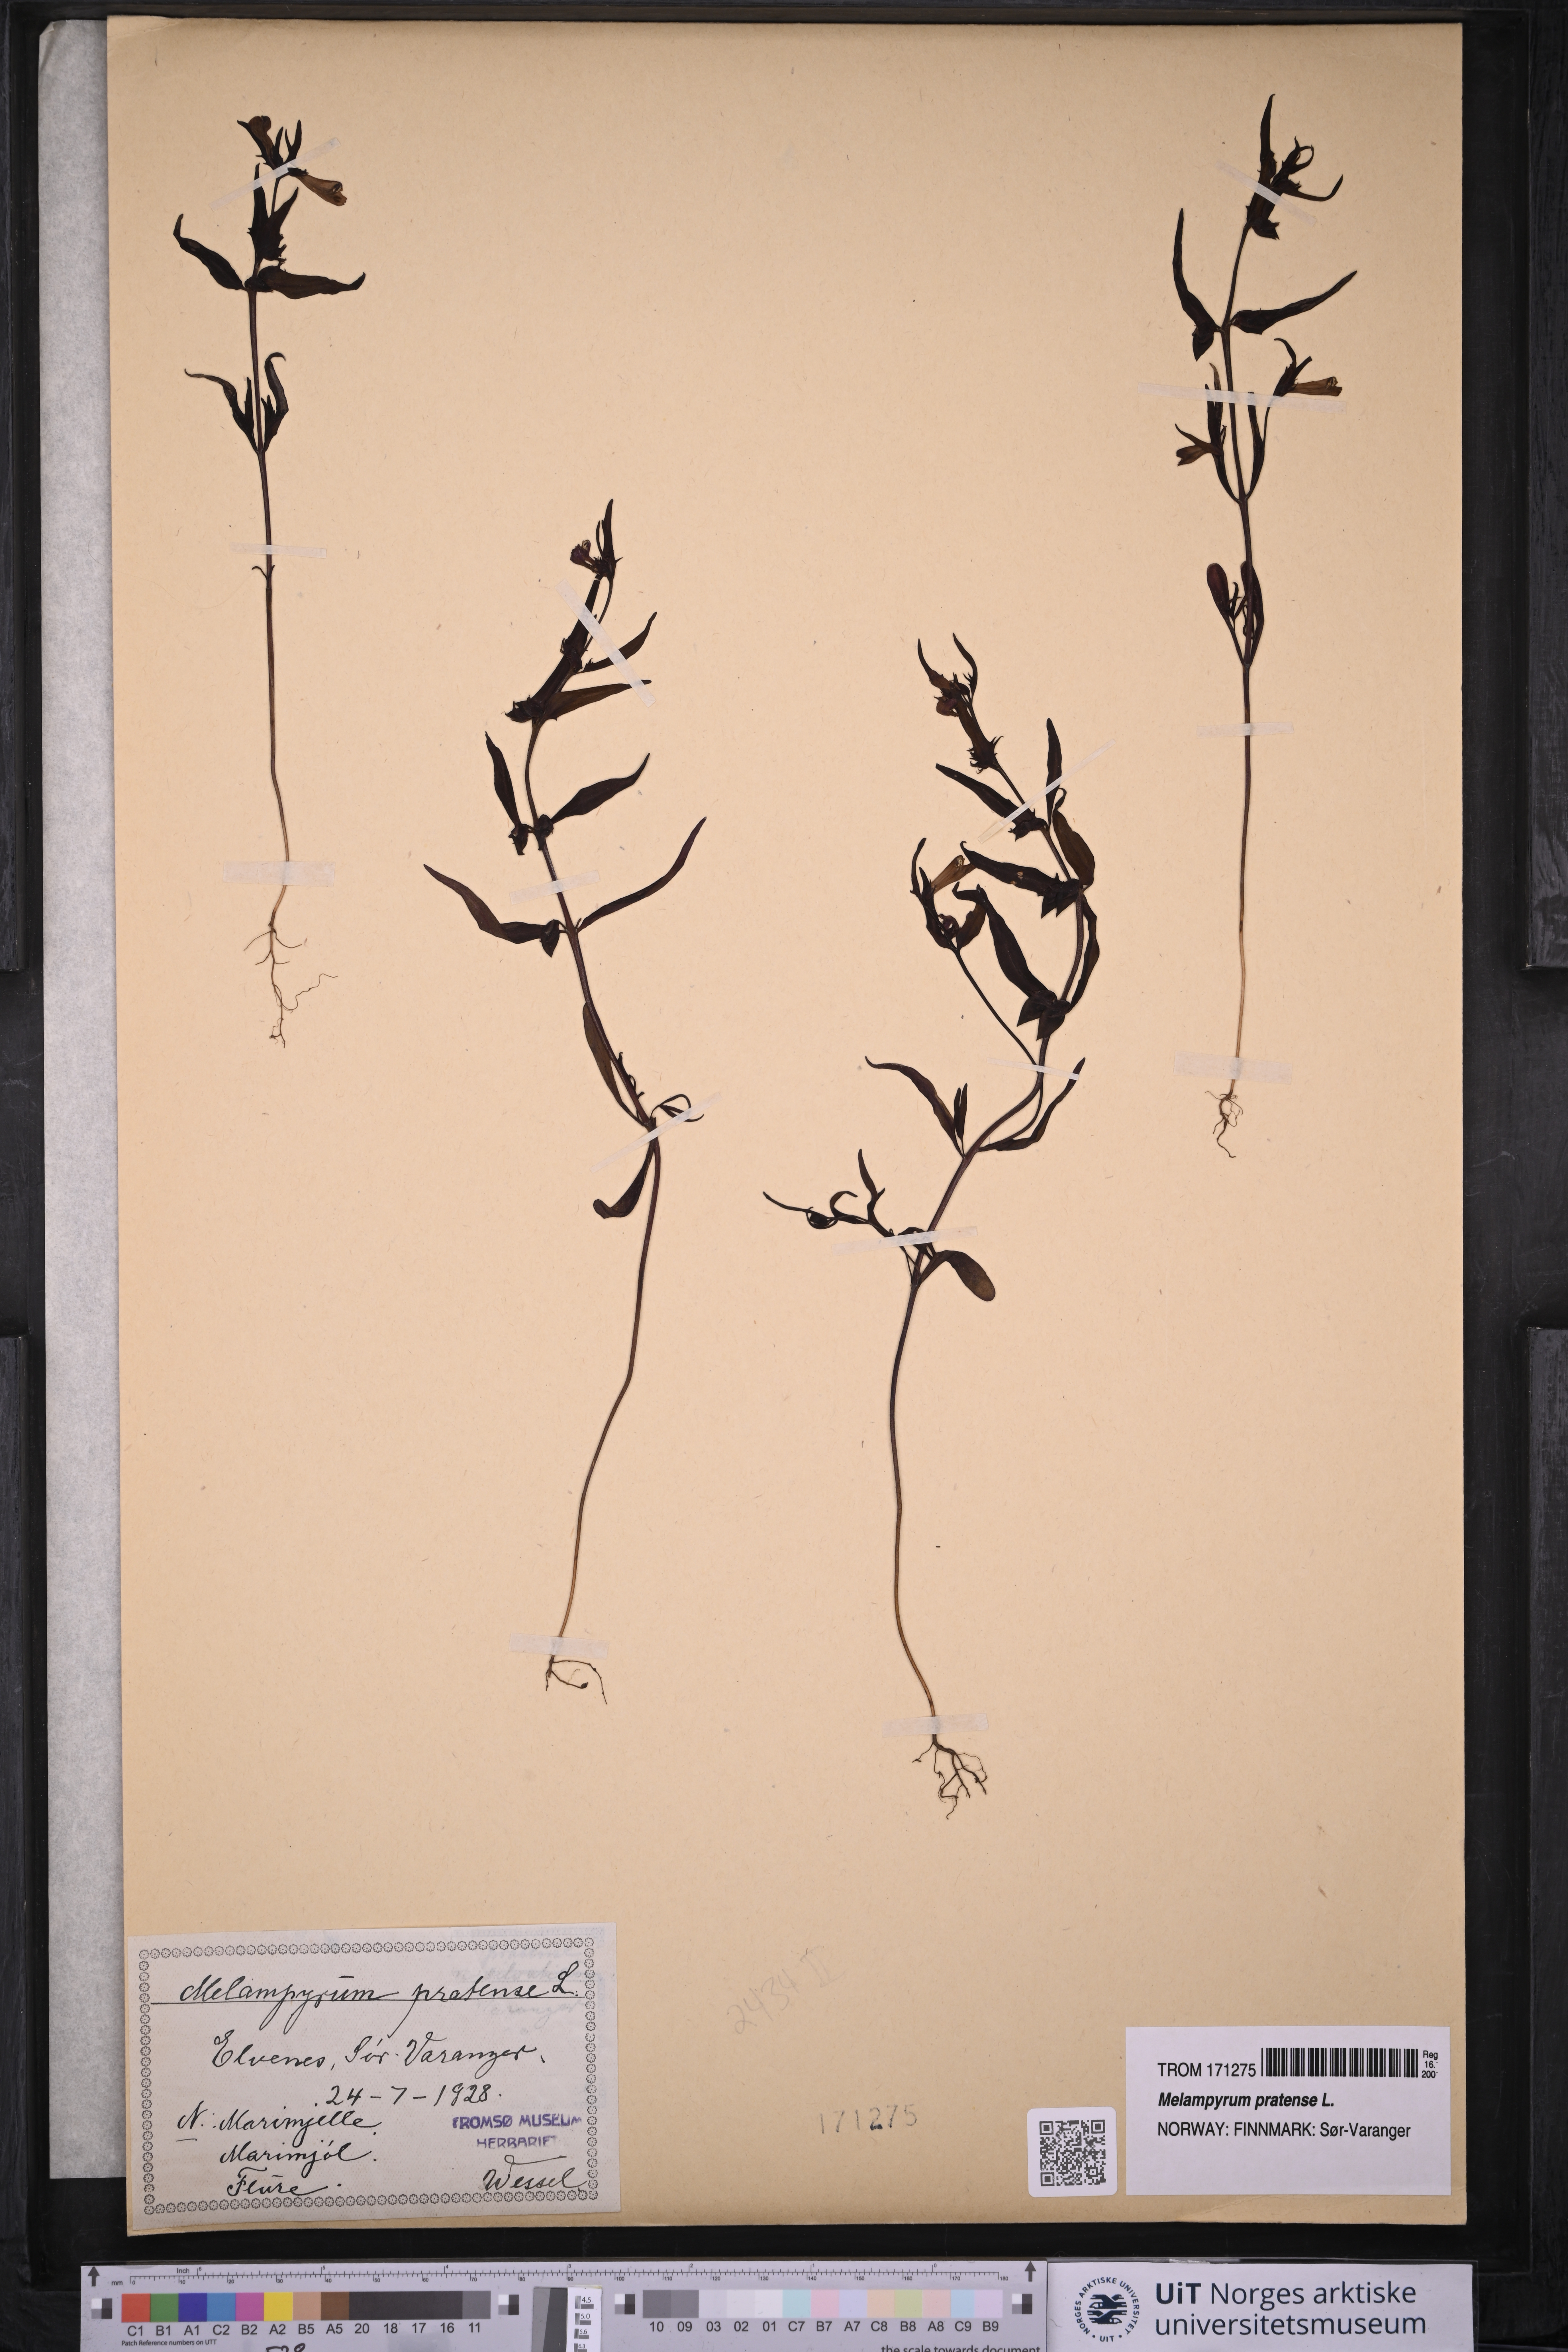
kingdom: Plantae
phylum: Tracheophyta
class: Magnoliopsida
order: Lamiales
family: Orobanchaceae
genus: Melampyrum
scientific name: Melampyrum pratense
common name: Common cow-wheat
